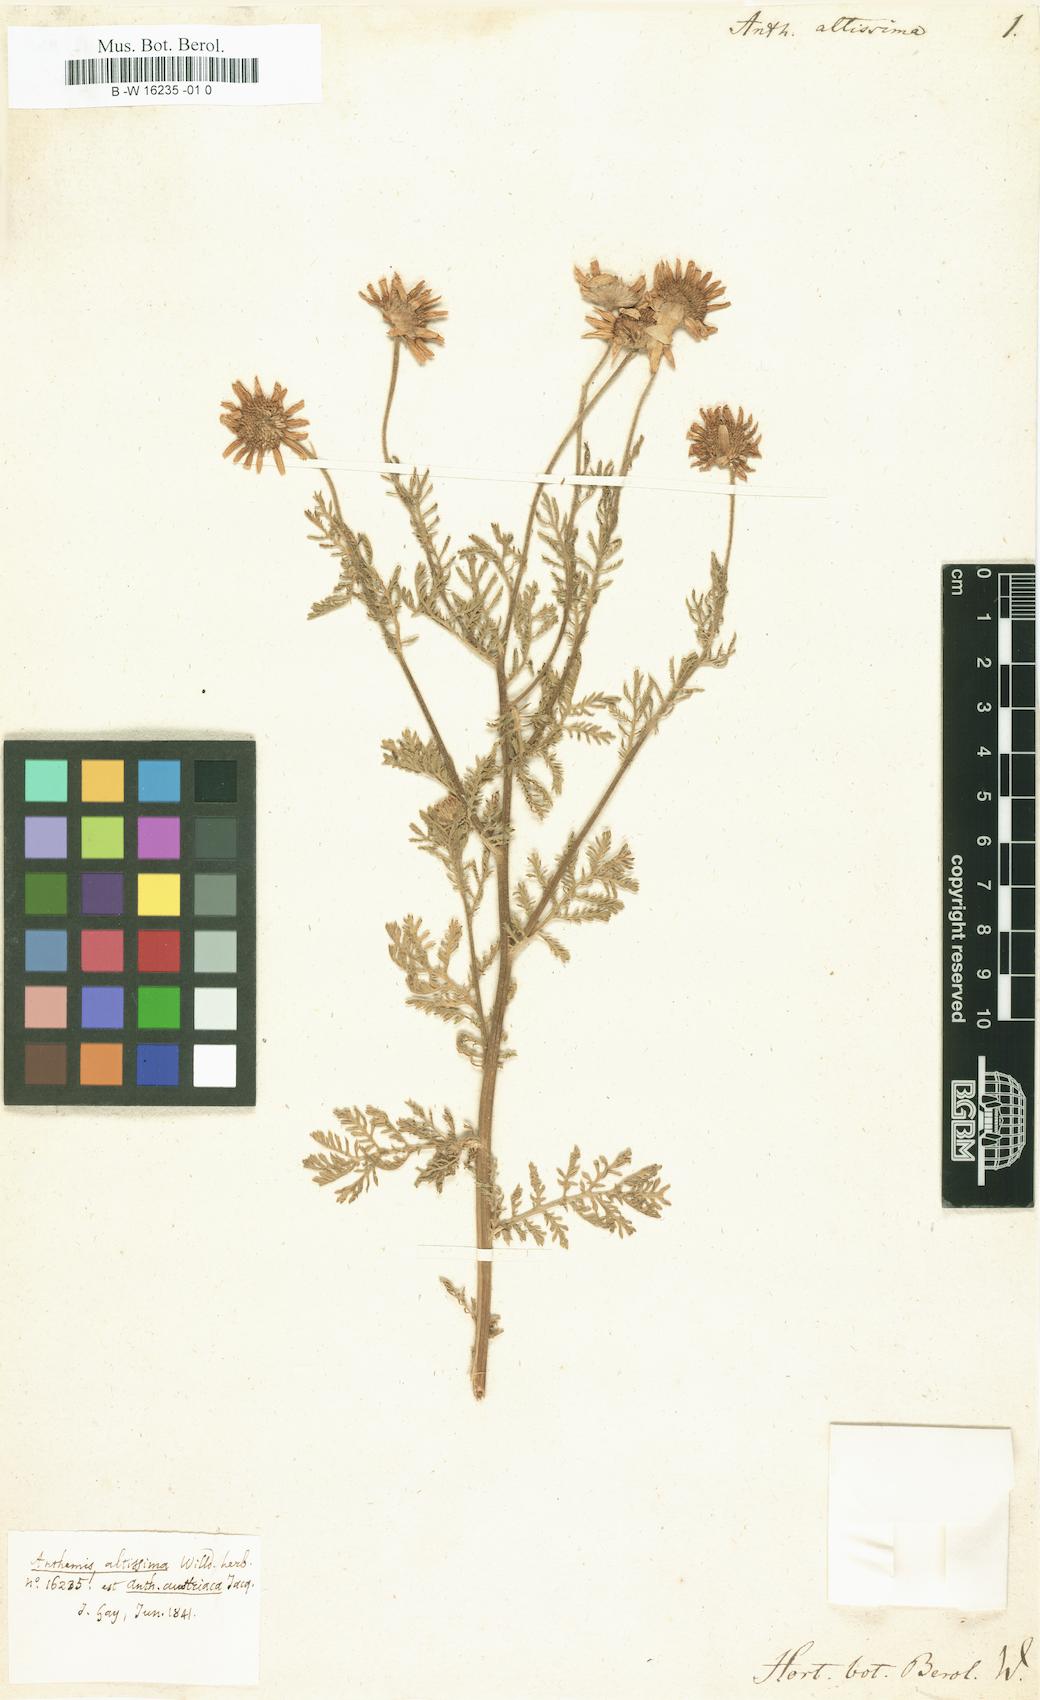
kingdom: Plantae
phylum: Tracheophyta
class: Magnoliopsida
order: Asterales
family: Asteraceae
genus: Cota
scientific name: Cota altissima
